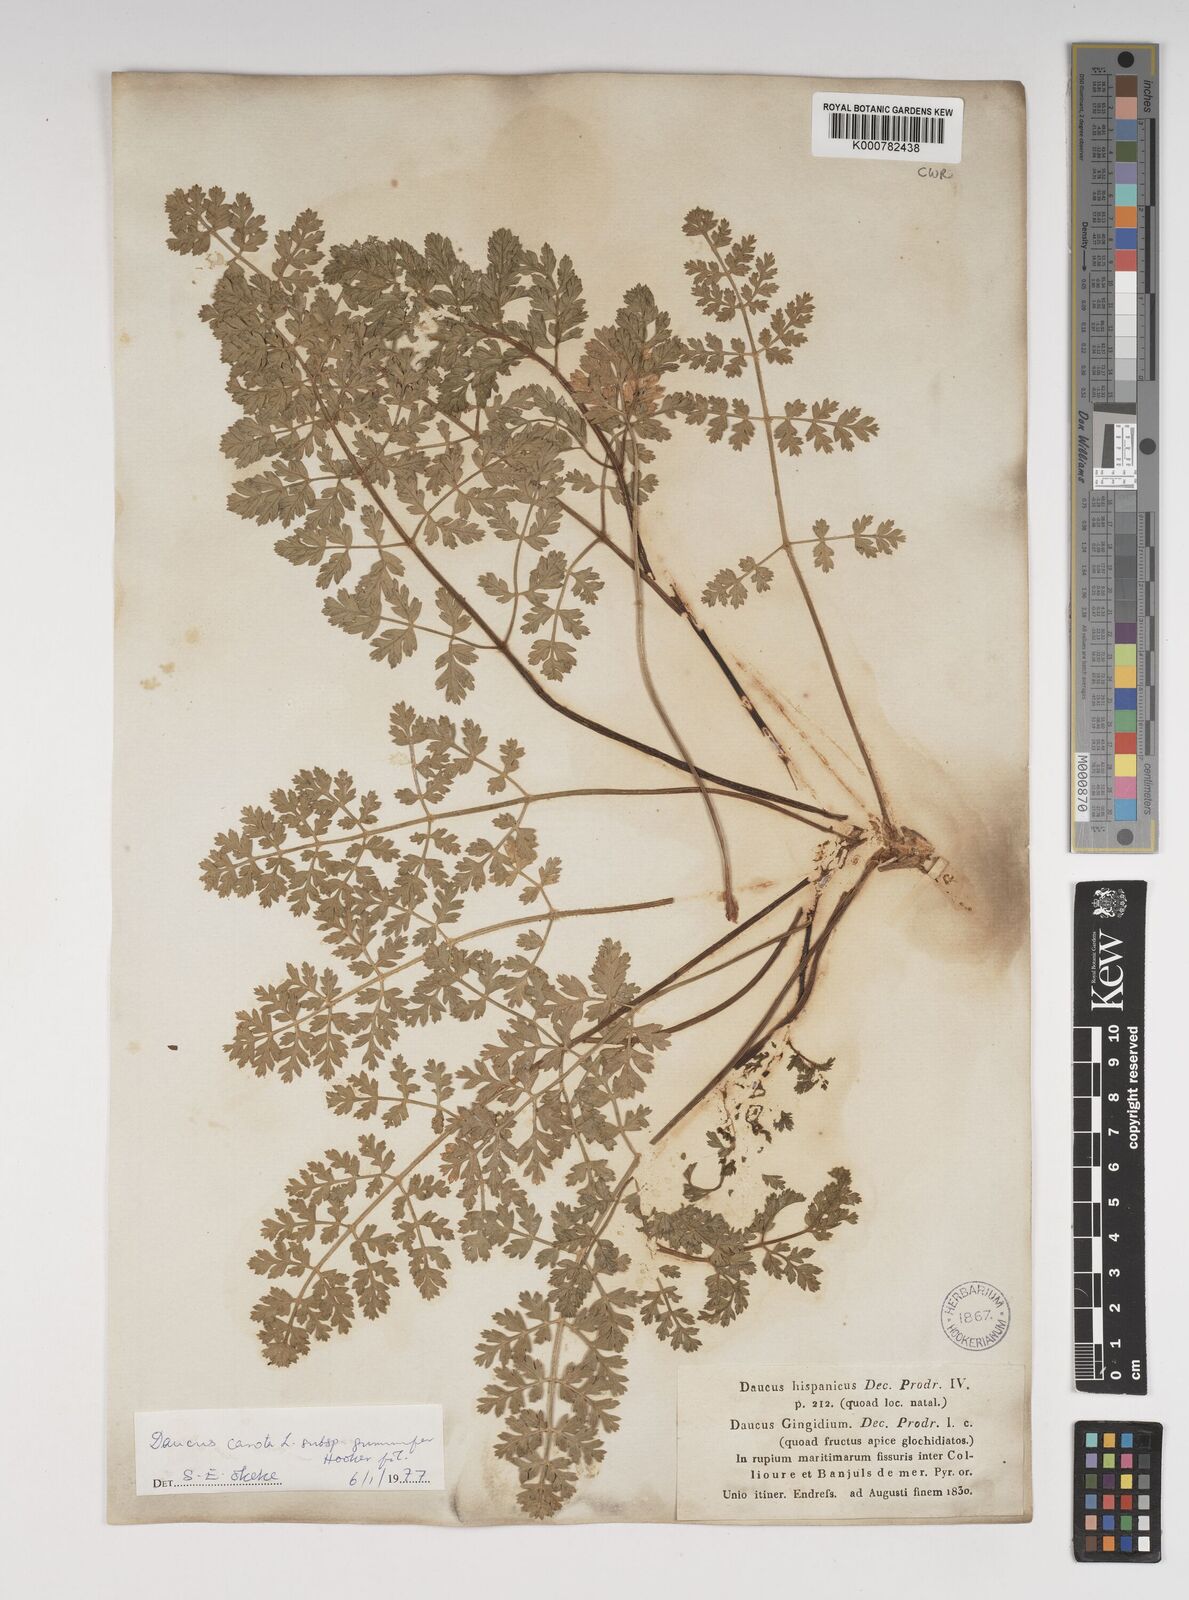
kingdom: Plantae
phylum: Tracheophyta
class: Magnoliopsida
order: Apiales
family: Apiaceae
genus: Daucus
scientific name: Daucus carota
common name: Wild carrot
